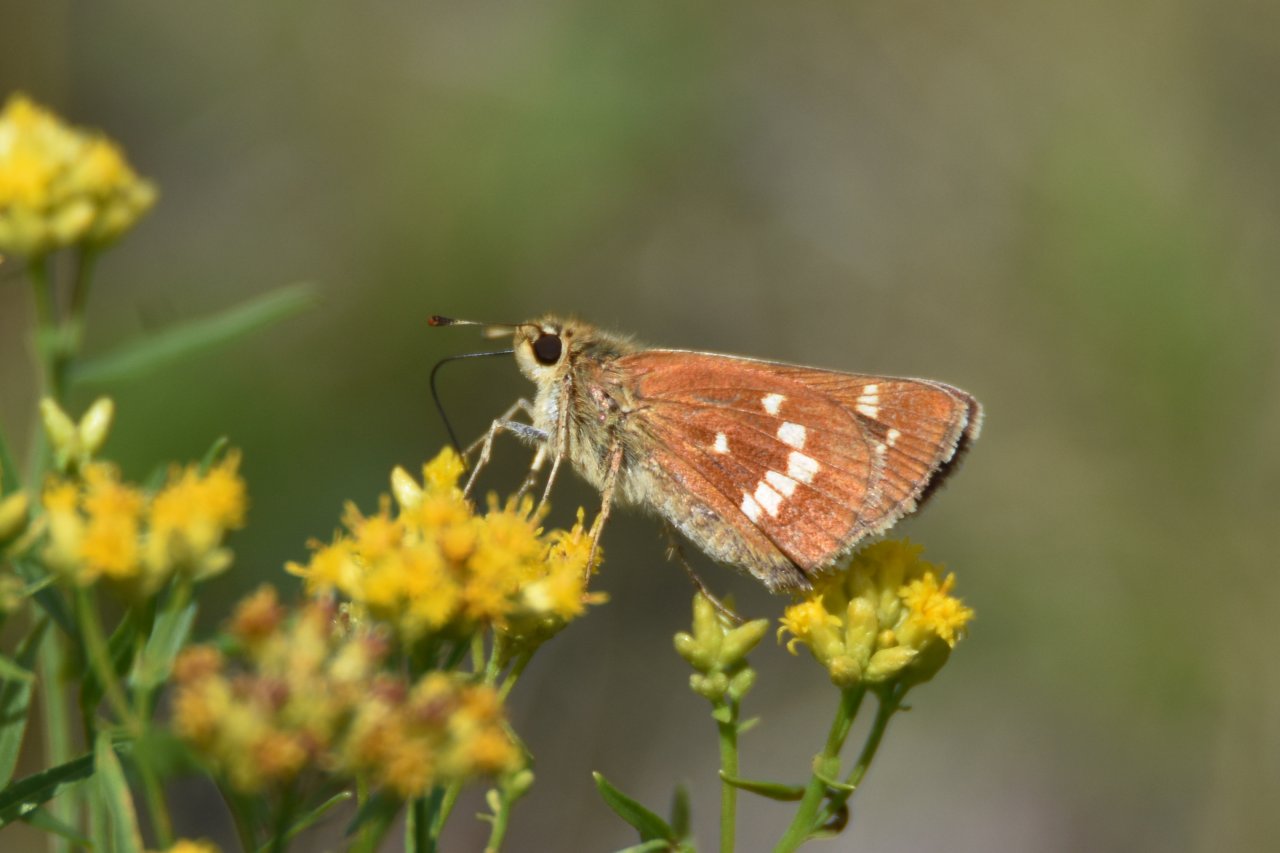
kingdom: Animalia
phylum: Arthropoda
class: Insecta
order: Lepidoptera
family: Hesperiidae
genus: Hesperia
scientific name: Hesperia leonardus
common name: Leonard's Skipper
